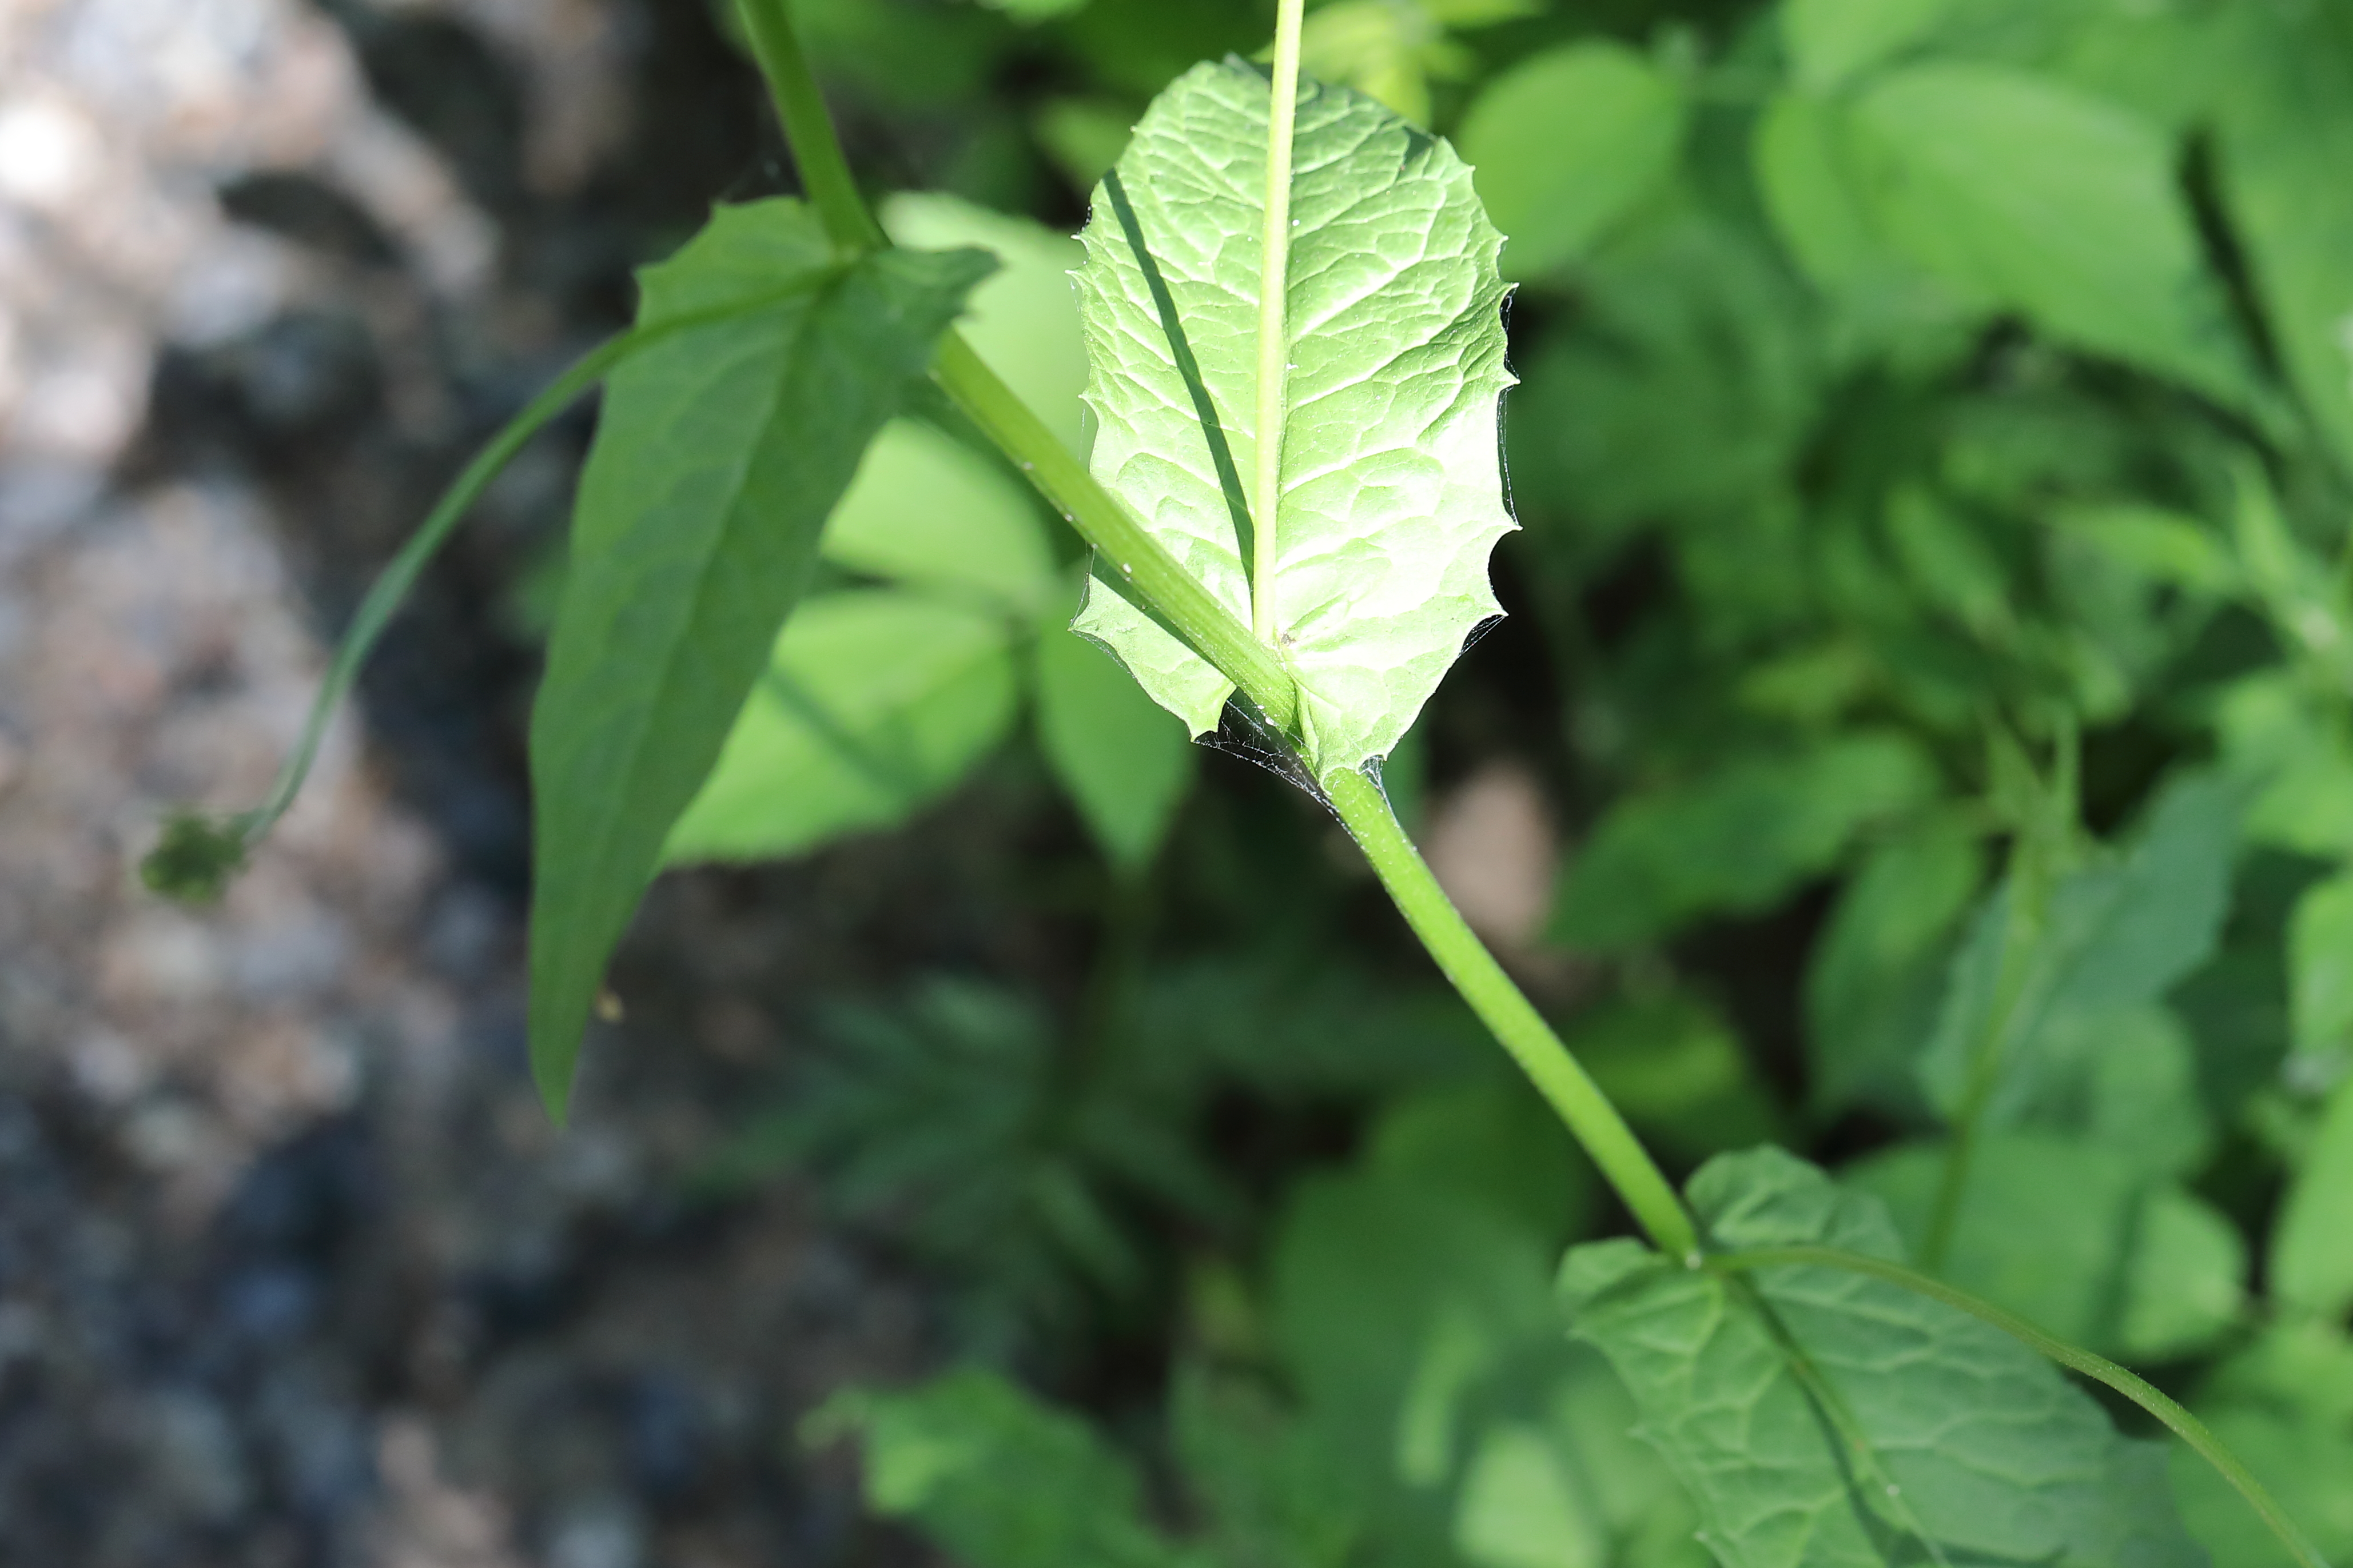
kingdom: Plantae
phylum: Tracheophyta
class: Magnoliopsida
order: Asterales
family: Asteraceae
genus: Crepis
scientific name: Crepis paludosa
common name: Marsh hawk's-beard
